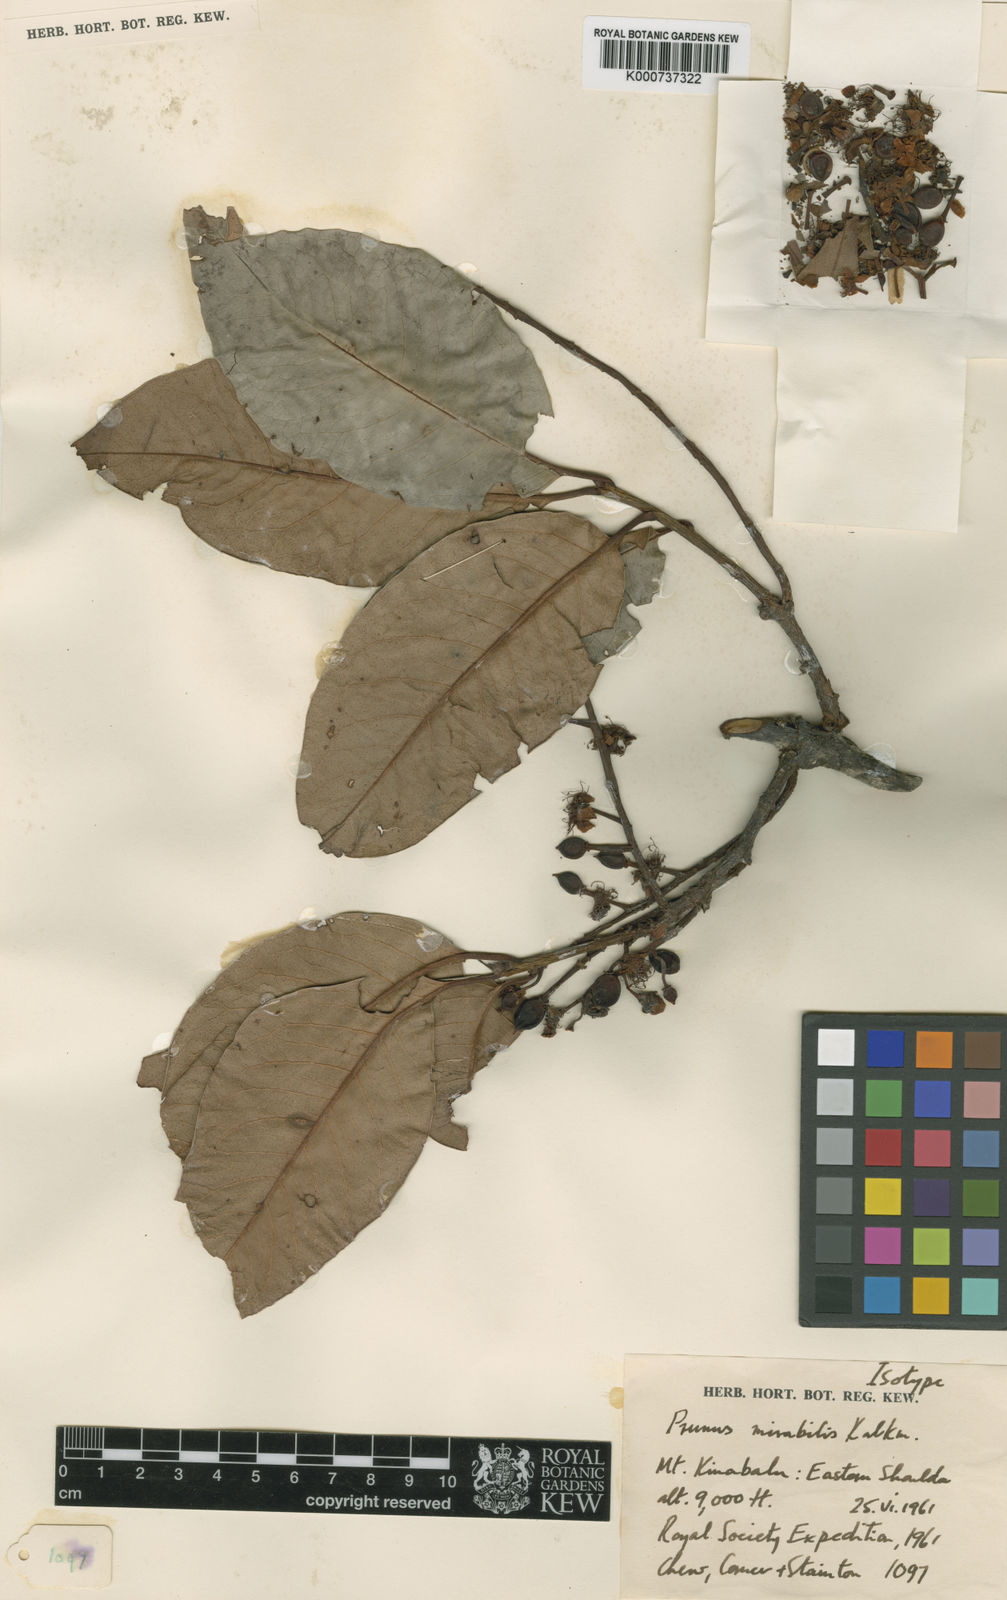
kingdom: Plantae
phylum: Tracheophyta
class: Magnoliopsida
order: Rosales
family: Rosaceae
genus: Prunus
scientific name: Prunus mirabilis
